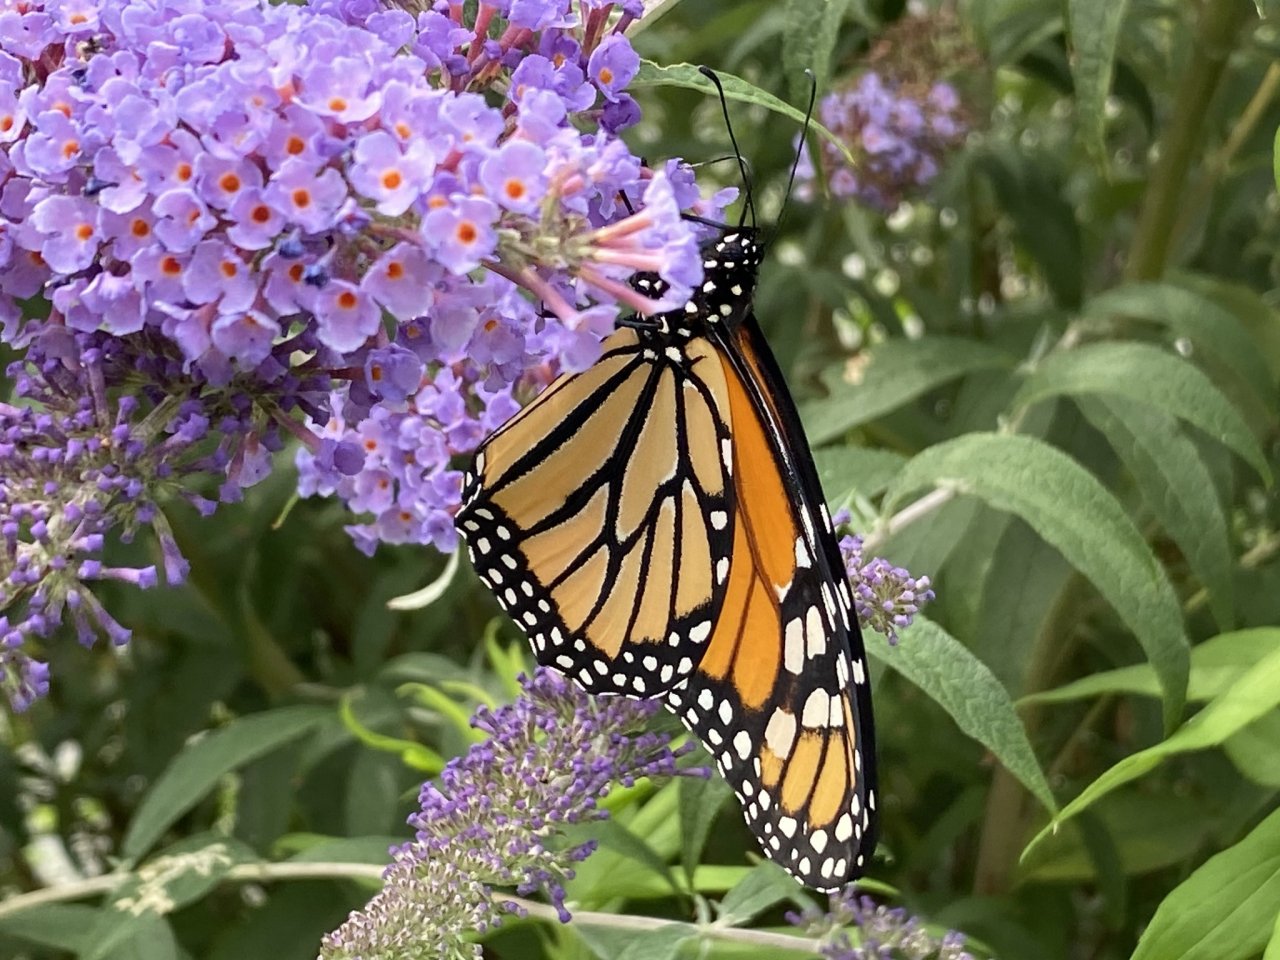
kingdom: Animalia
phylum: Arthropoda
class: Insecta
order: Lepidoptera
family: Nymphalidae
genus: Danaus
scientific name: Danaus plexippus
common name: Monarch
